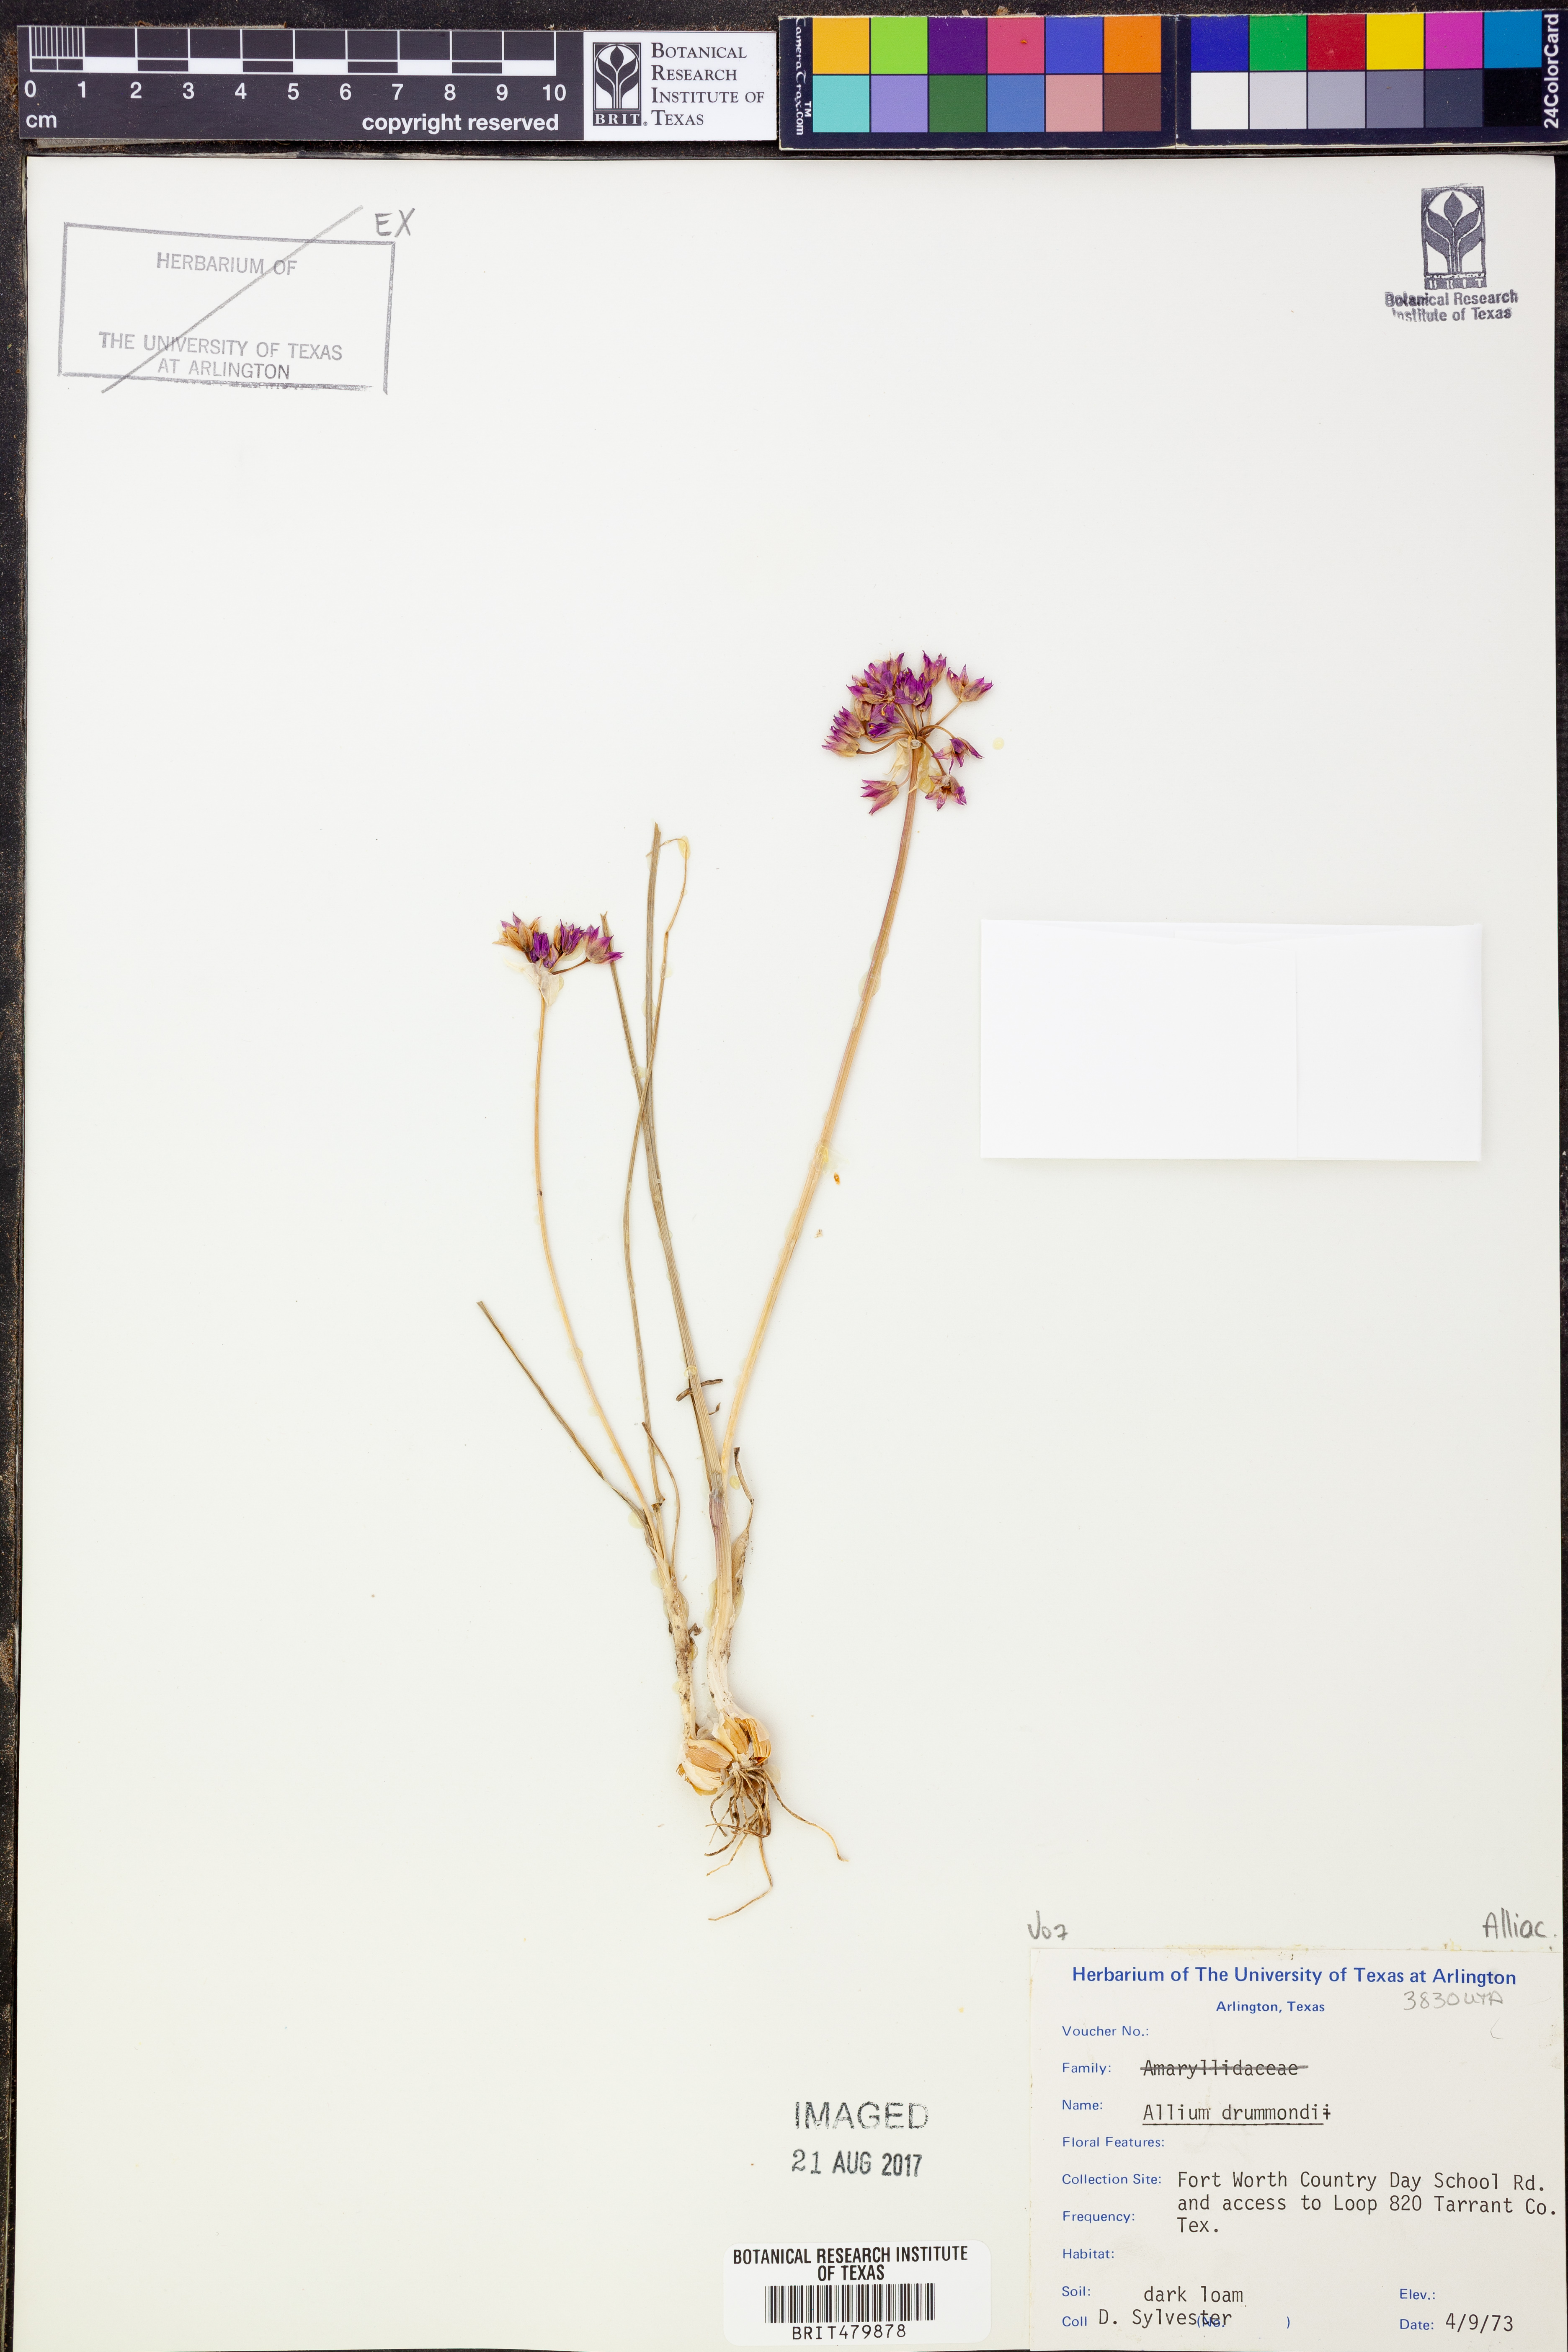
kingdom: Plantae
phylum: Tracheophyta
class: Liliopsida
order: Asparagales
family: Amaryllidaceae
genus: Allium
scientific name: Allium drummondii
